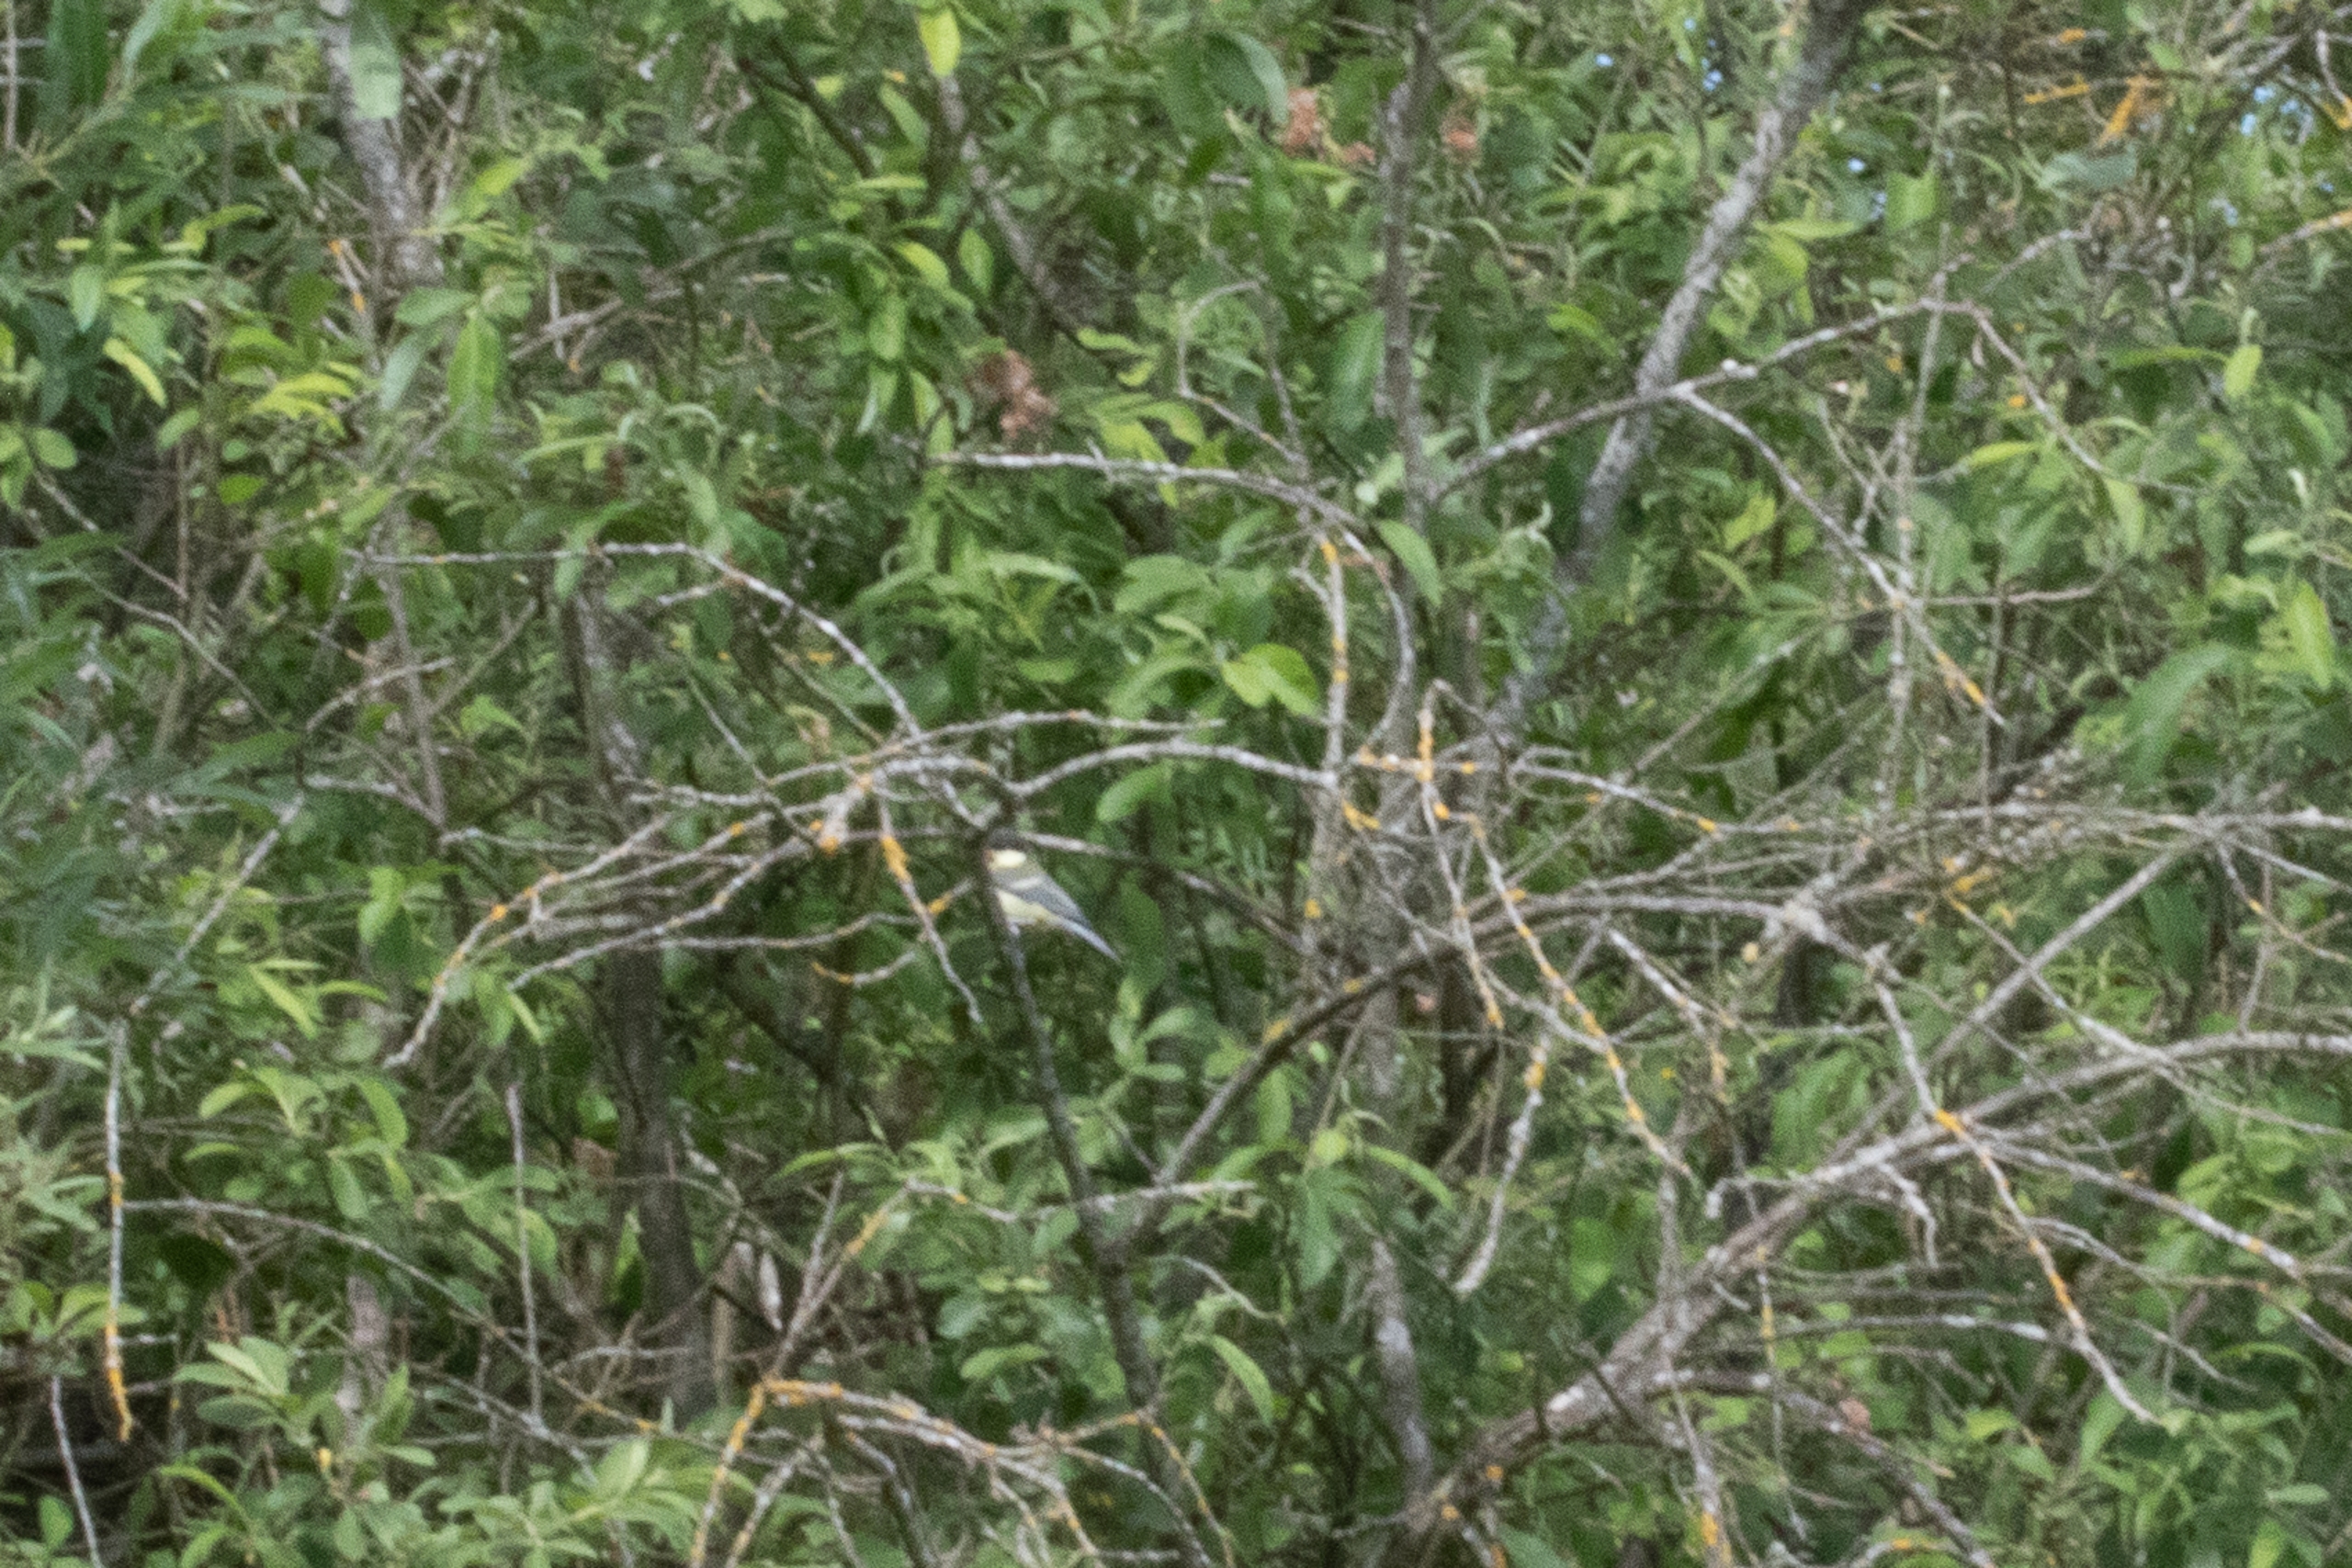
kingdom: Animalia
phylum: Chordata
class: Aves
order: Passeriformes
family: Paridae
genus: Parus
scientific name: Parus major
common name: Musvit
